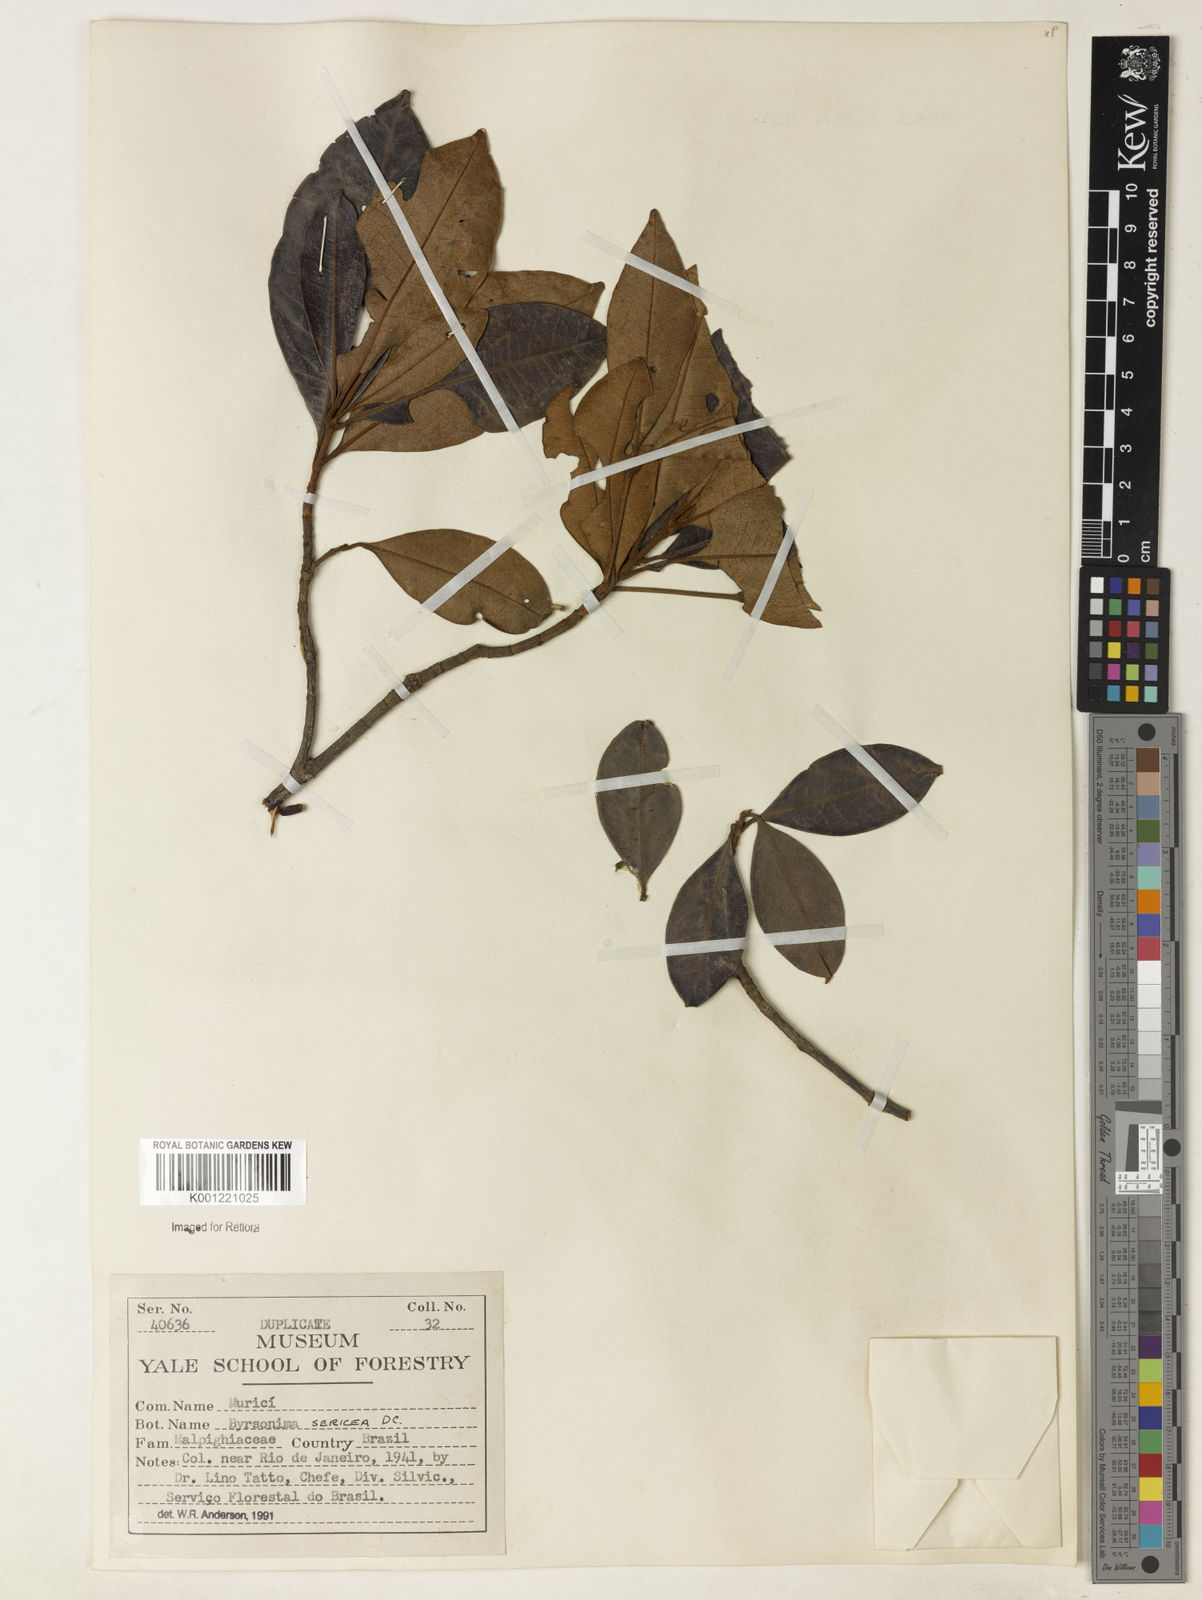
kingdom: Plantae
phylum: Tracheophyta
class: Magnoliopsida
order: Malpighiales
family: Malpighiaceae
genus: Byrsonima
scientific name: Byrsonima sericea
